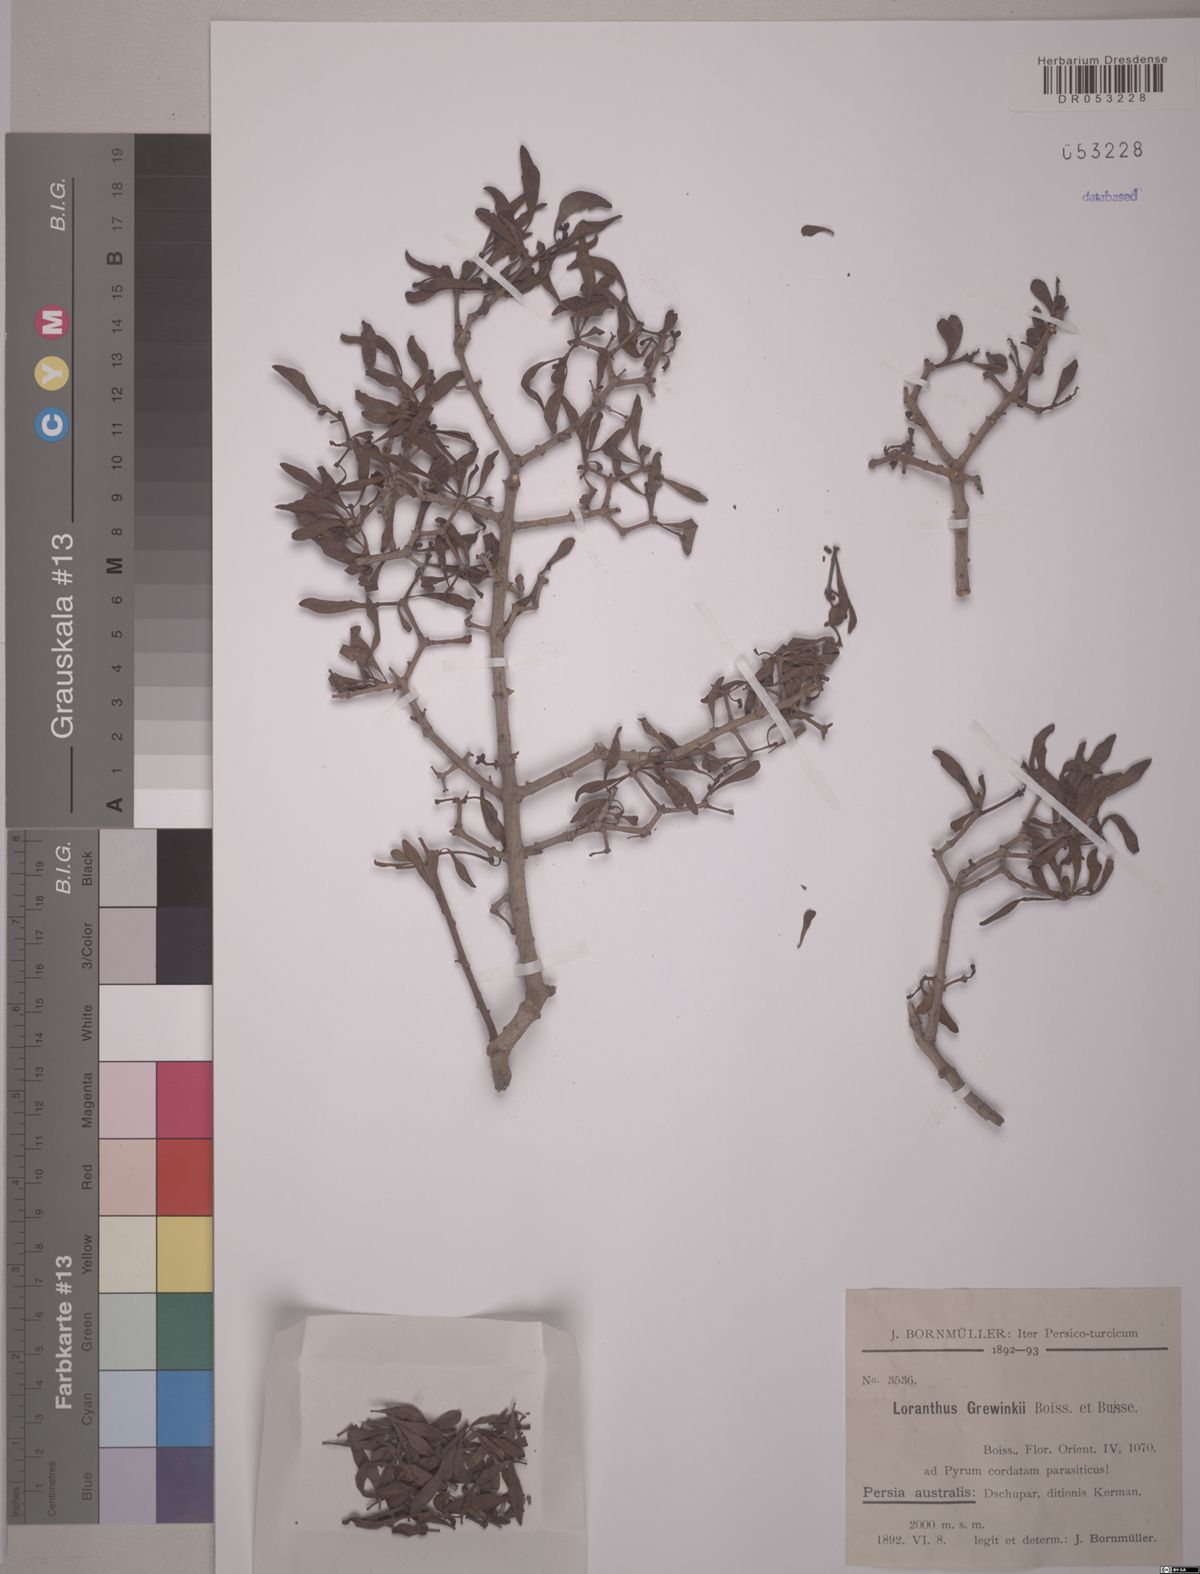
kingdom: Plantae
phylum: Tracheophyta
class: Magnoliopsida
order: Santalales
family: Loranthaceae
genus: Hyphear
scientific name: Hyphear grewingkii
